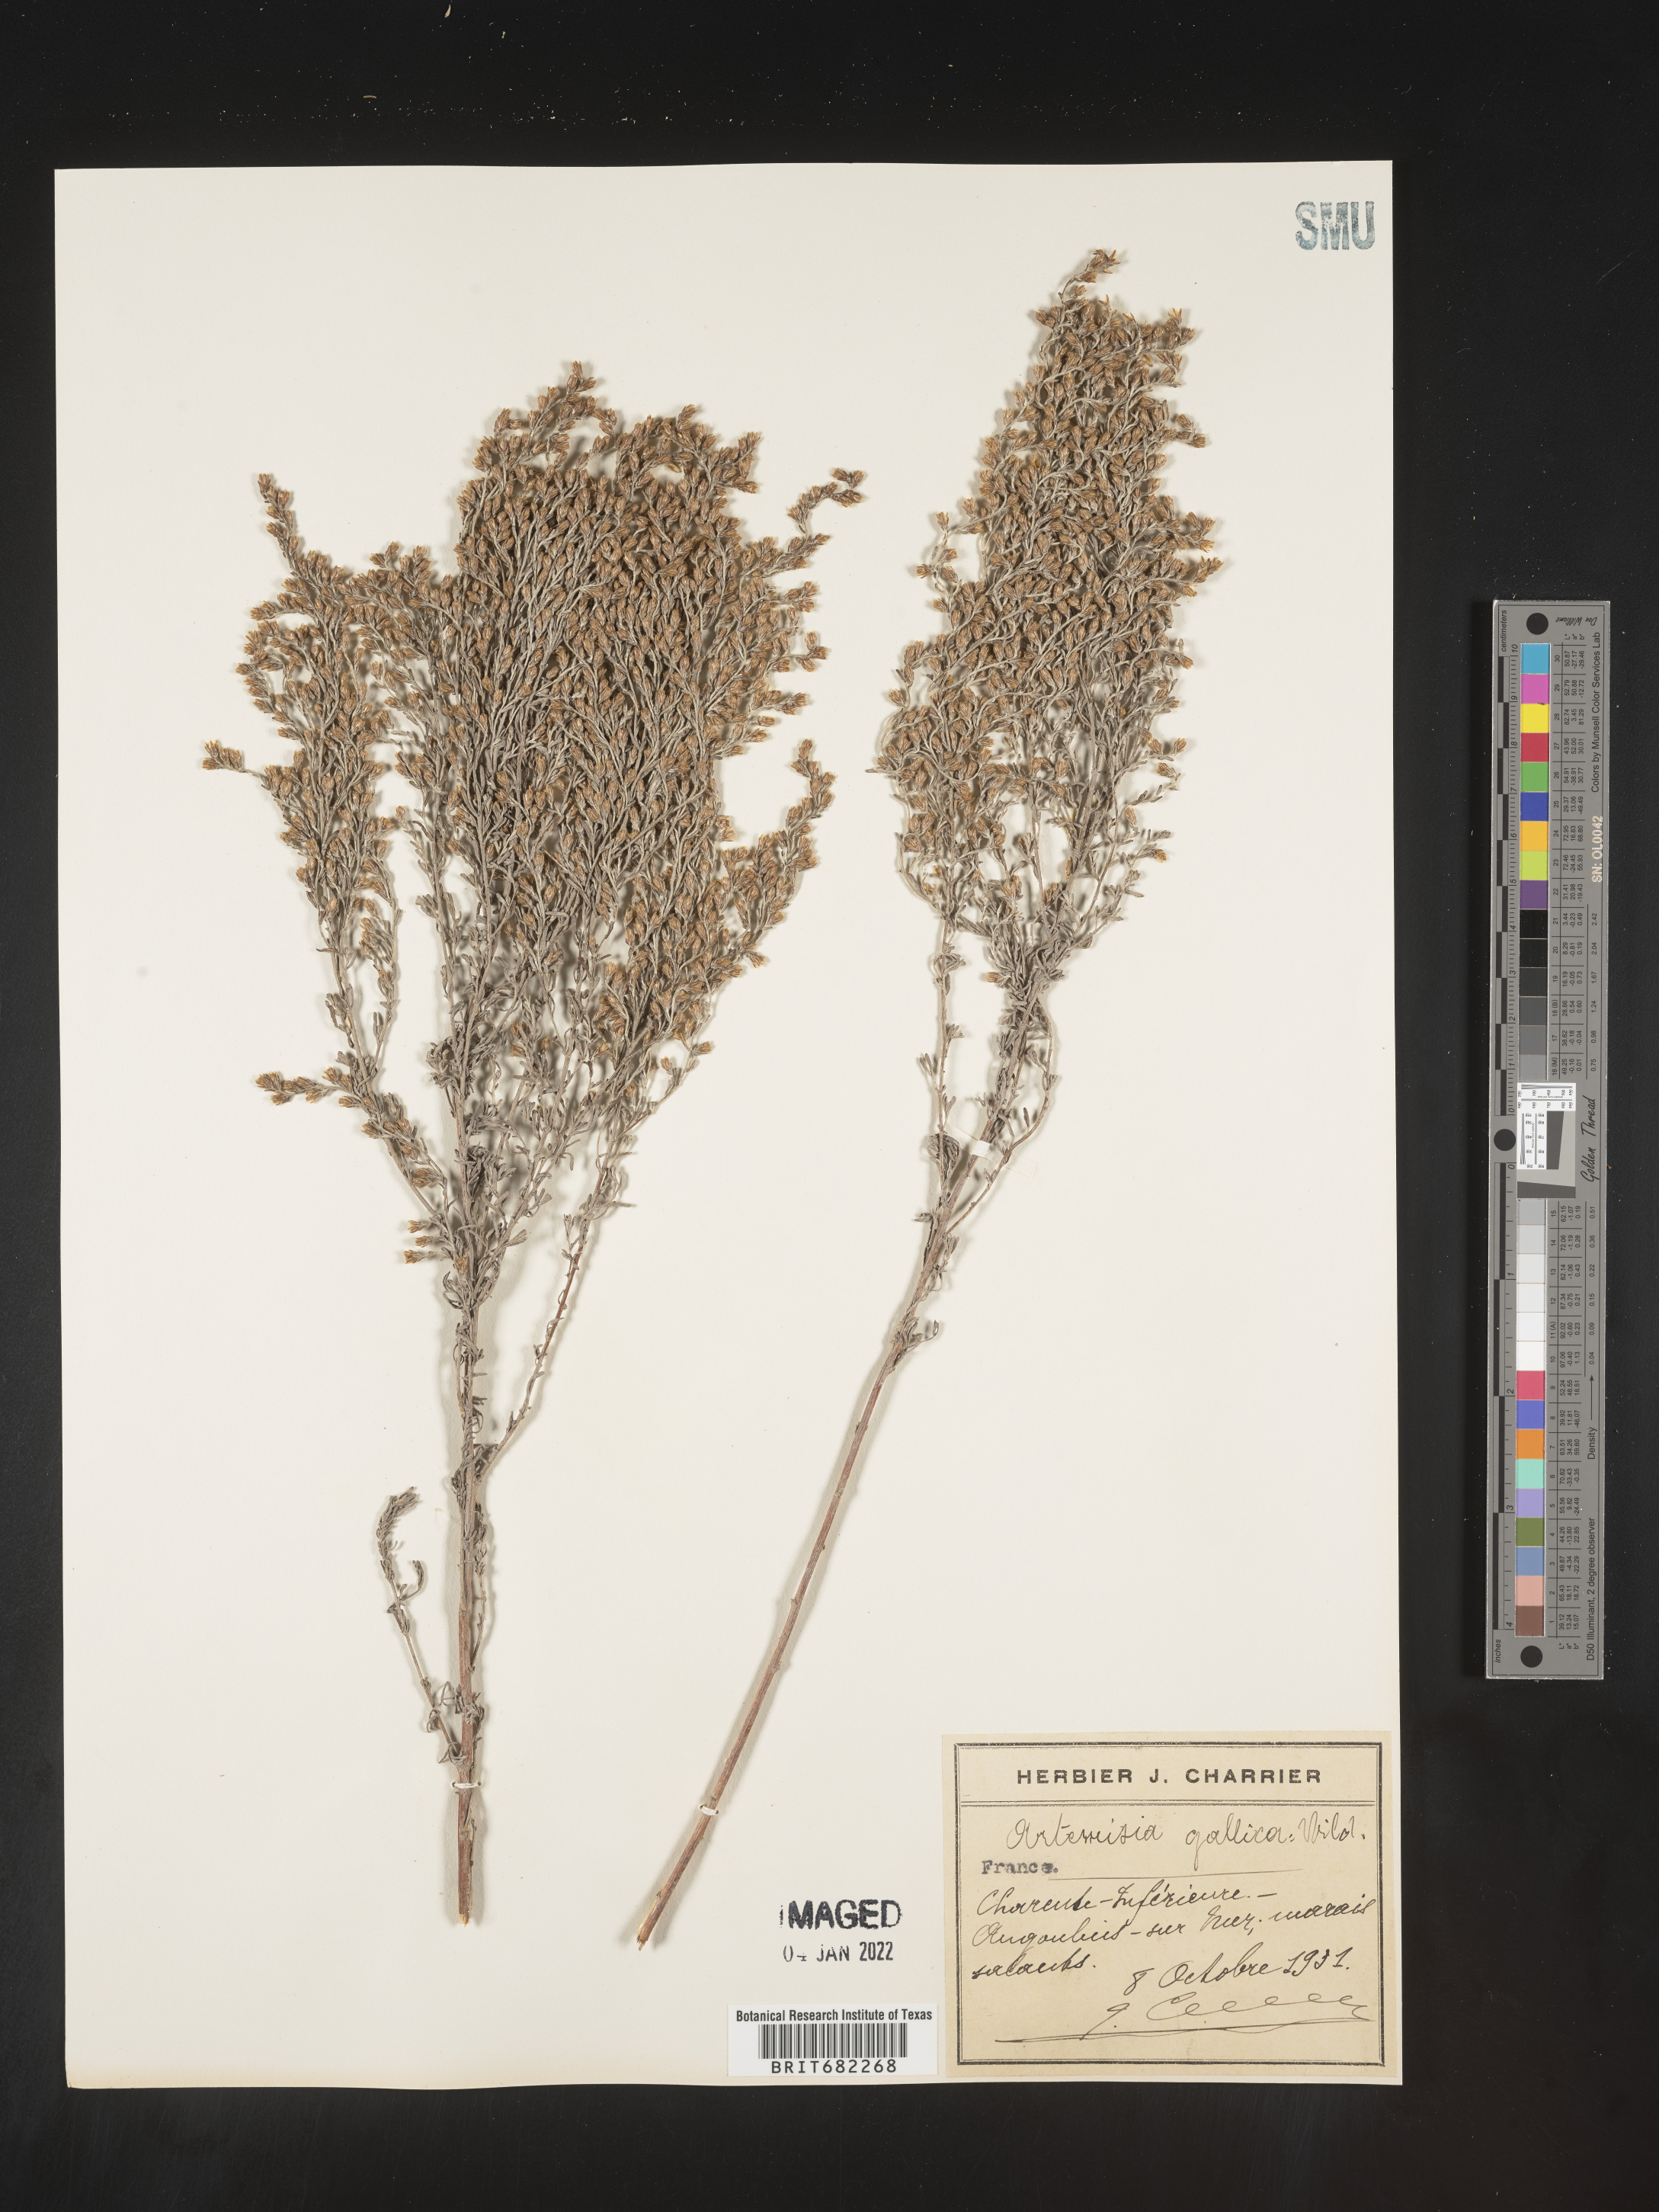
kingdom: Plantae
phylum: Tracheophyta
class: Magnoliopsida
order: Asterales
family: Asteraceae
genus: Artemisia
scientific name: Artemisia
